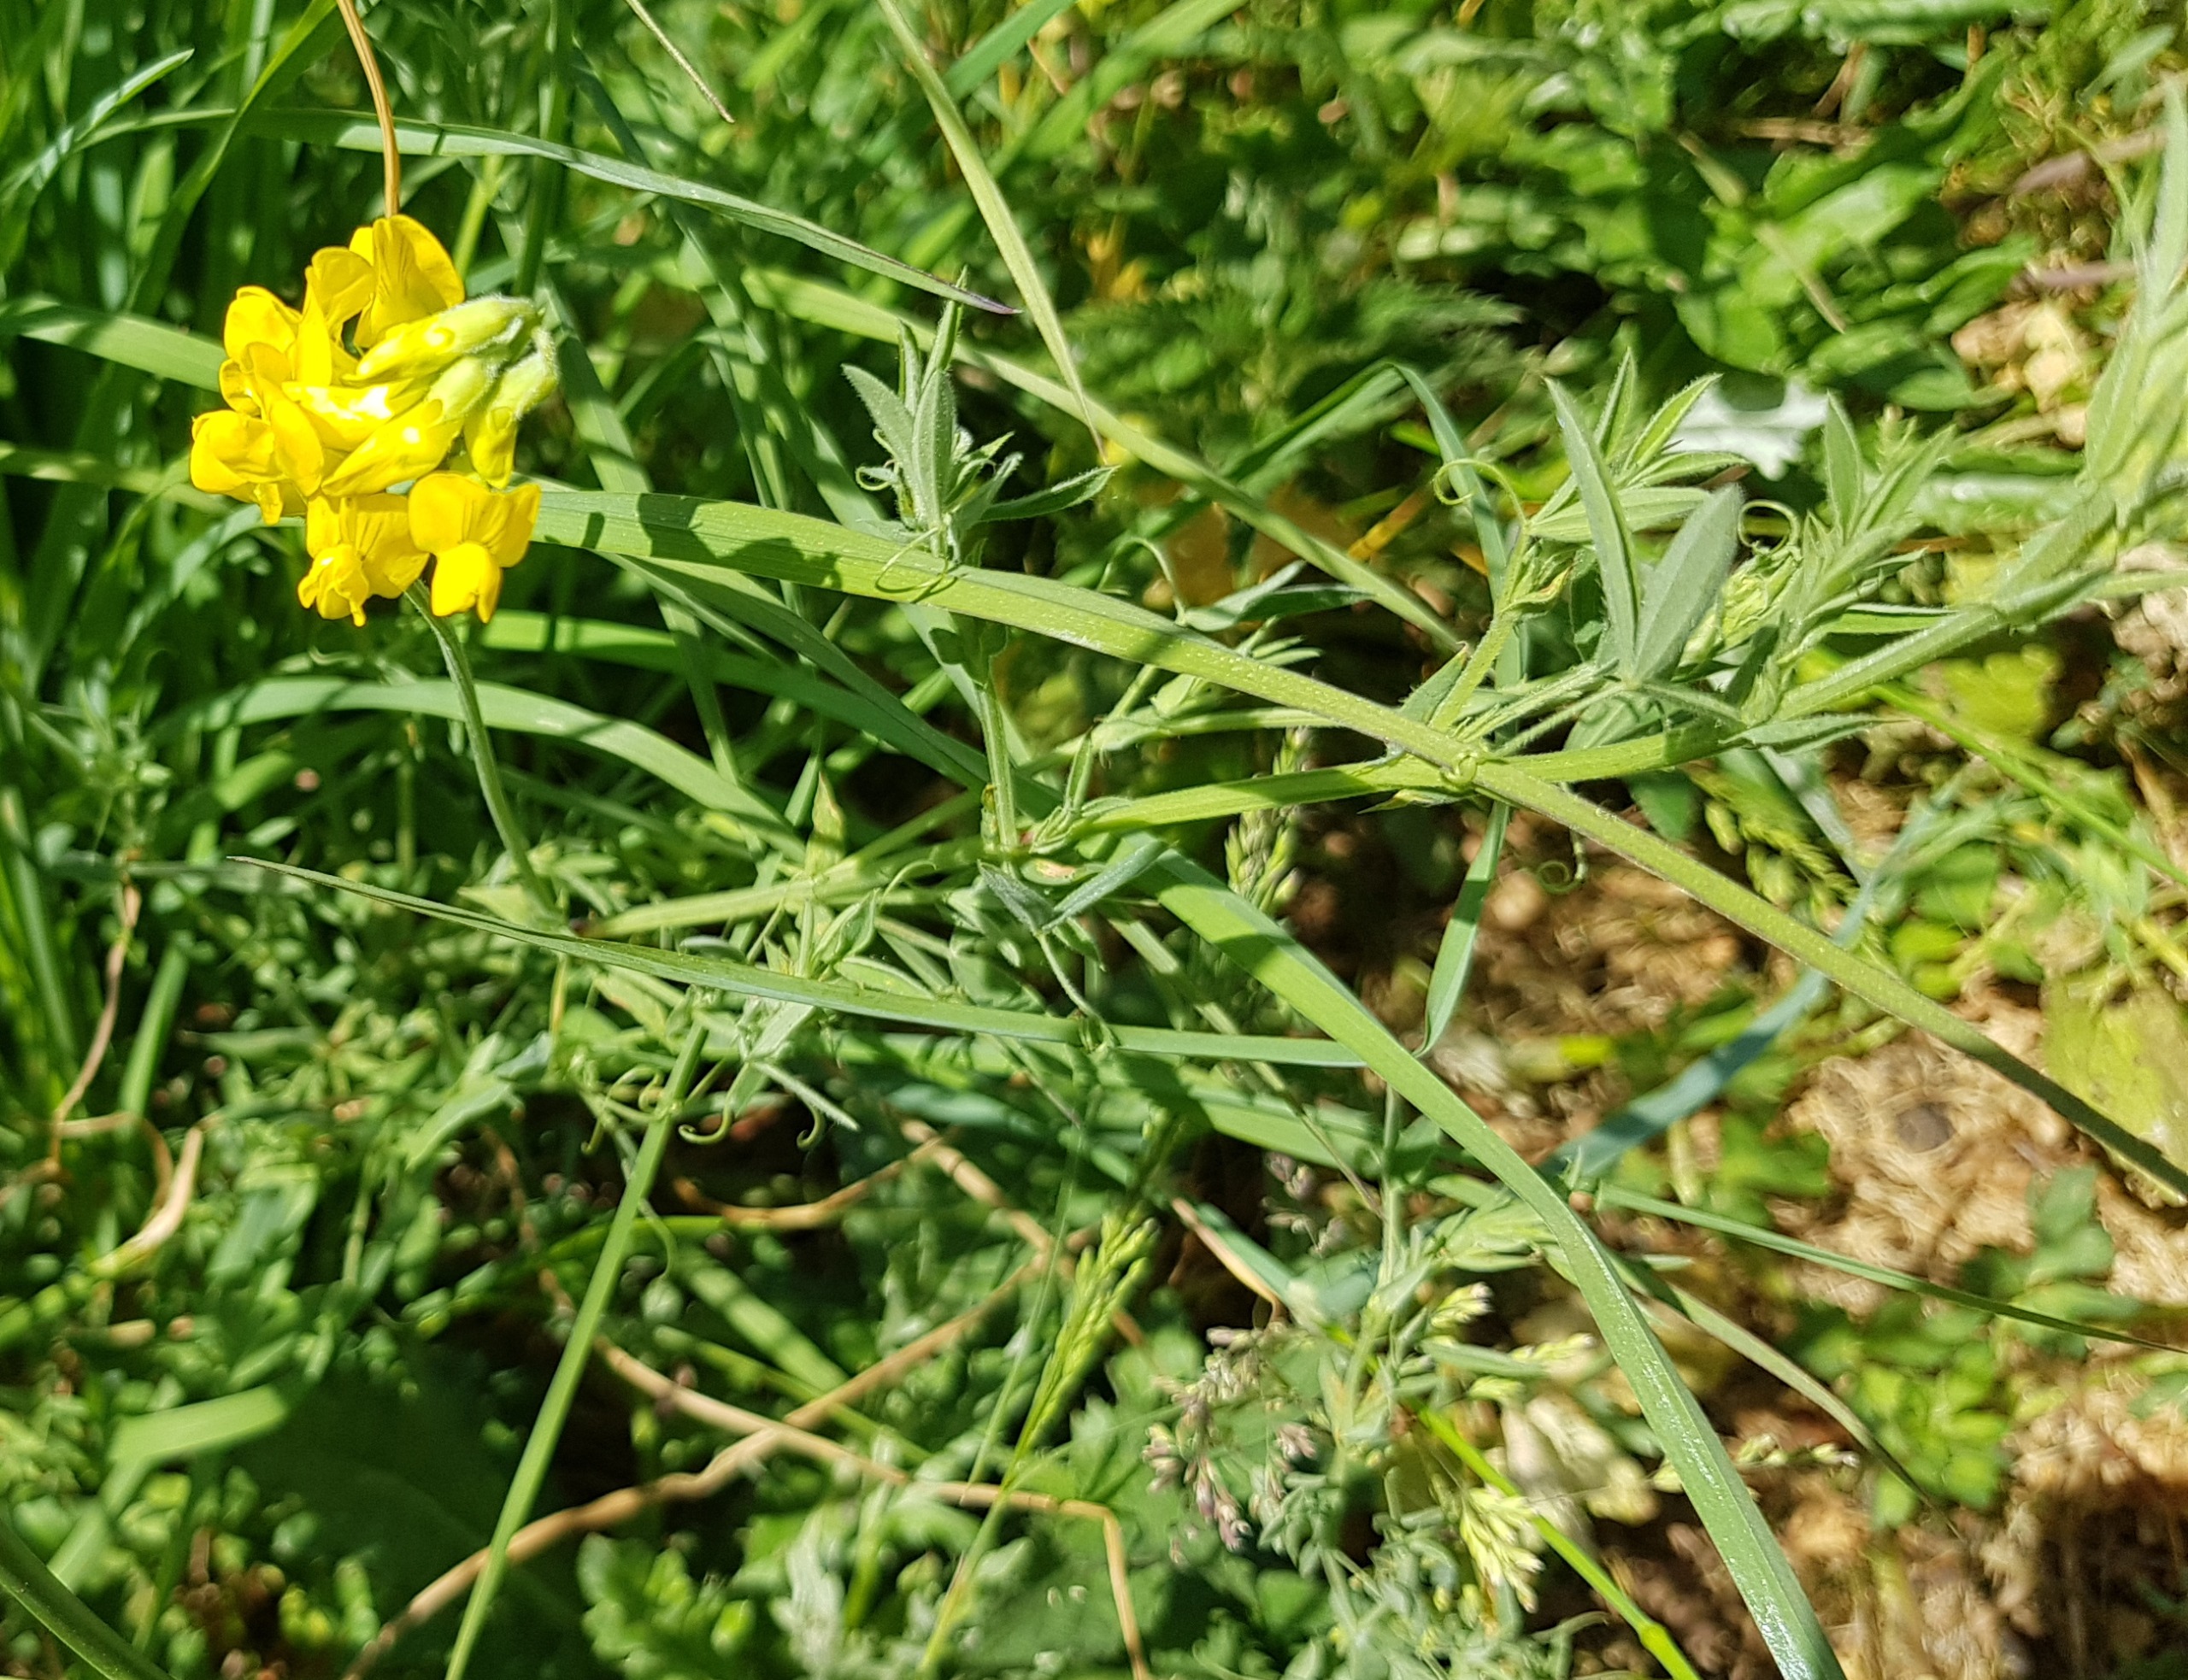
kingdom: Plantae
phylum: Tracheophyta
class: Magnoliopsida
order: Fabales
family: Fabaceae
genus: Lathyrus
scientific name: Lathyrus pratensis
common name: Gul fladbælg
